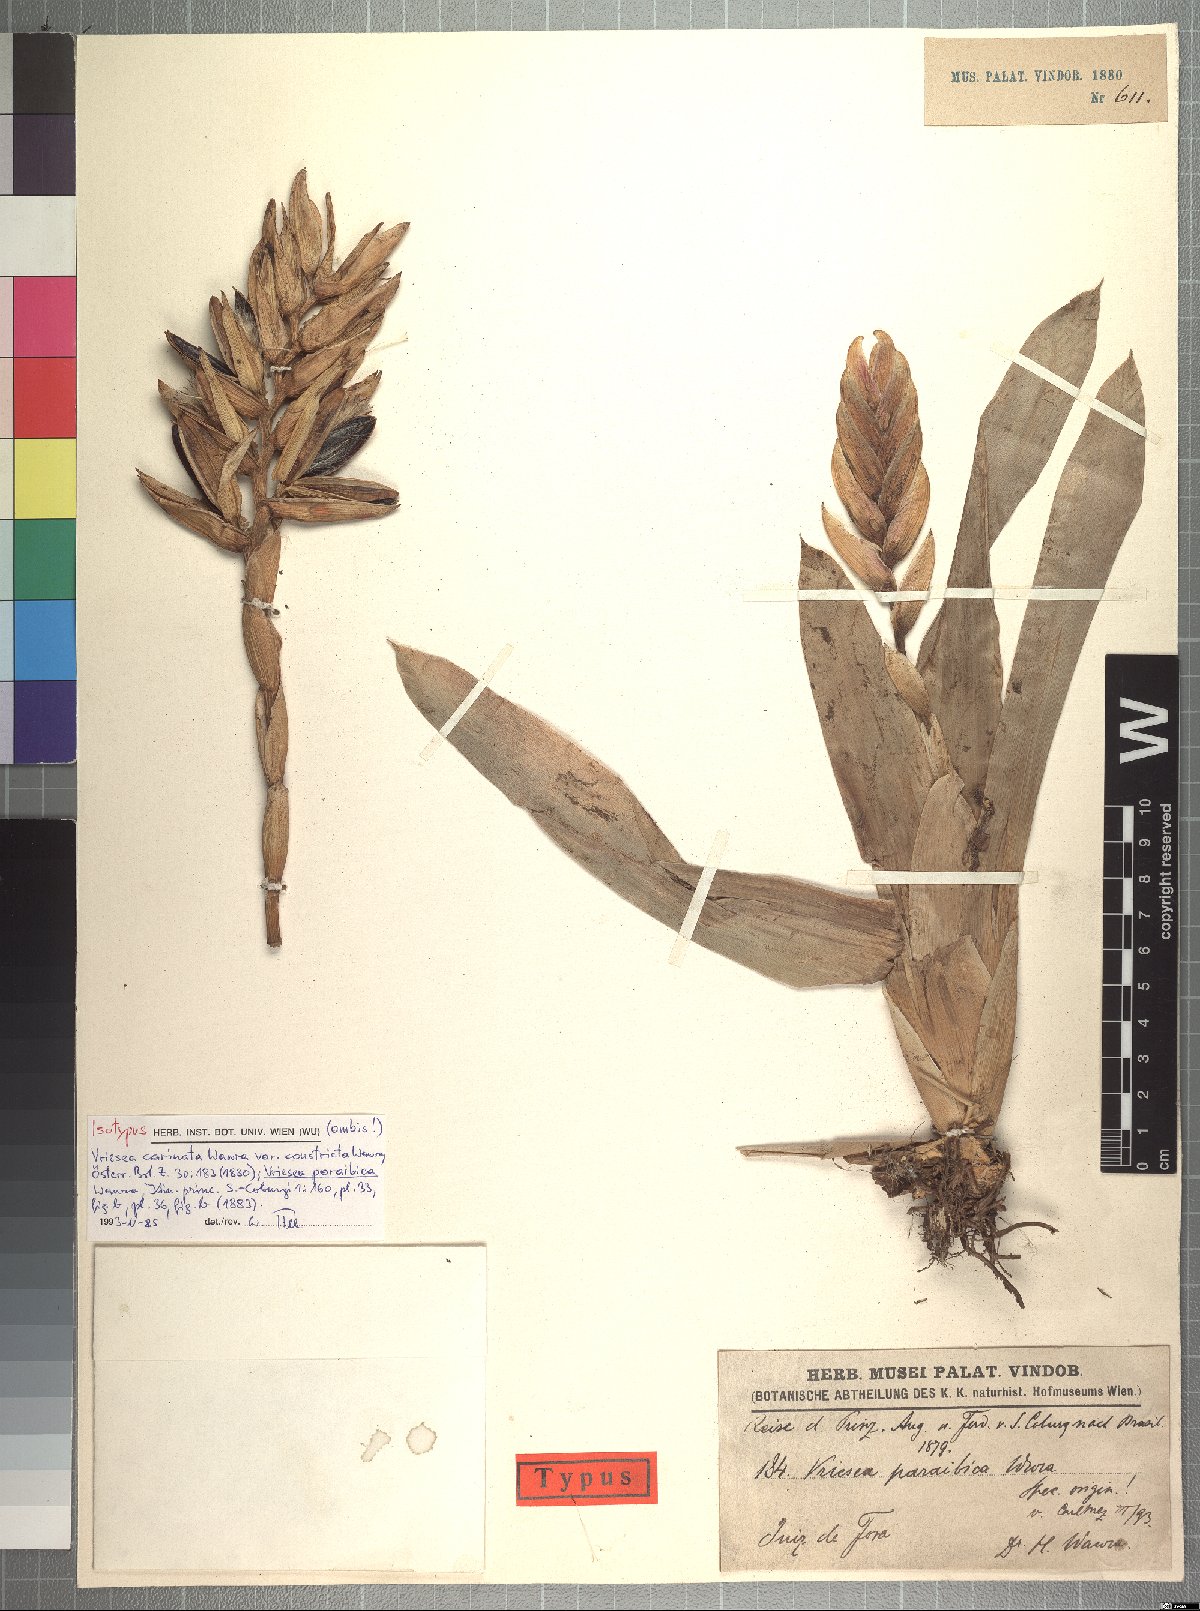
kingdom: Plantae
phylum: Tracheophyta
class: Liliopsida
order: Poales
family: Bromeliaceae
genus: Vriesea
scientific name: Vriesea paraibica
